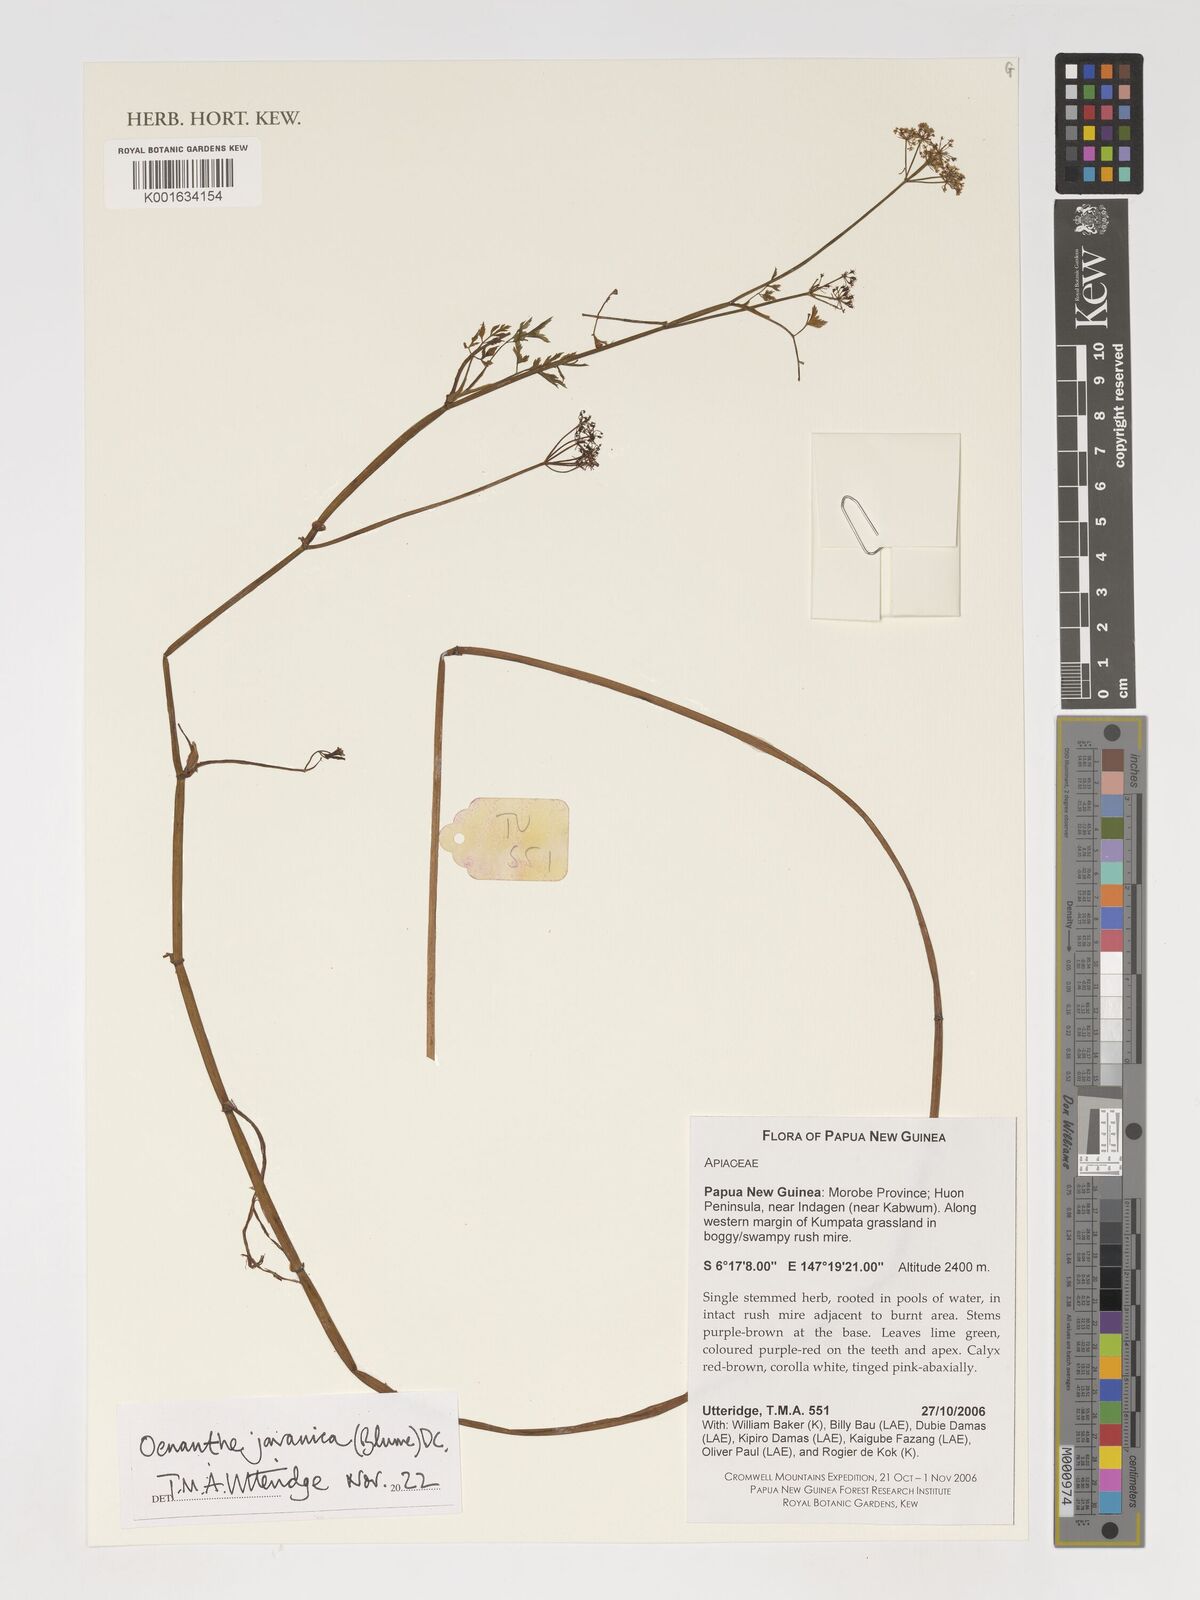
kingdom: Plantae
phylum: Tracheophyta
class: Magnoliopsida
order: Apiales
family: Apiaceae
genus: Oenanthe
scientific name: Oenanthe javanica
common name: Java water-dropwort
